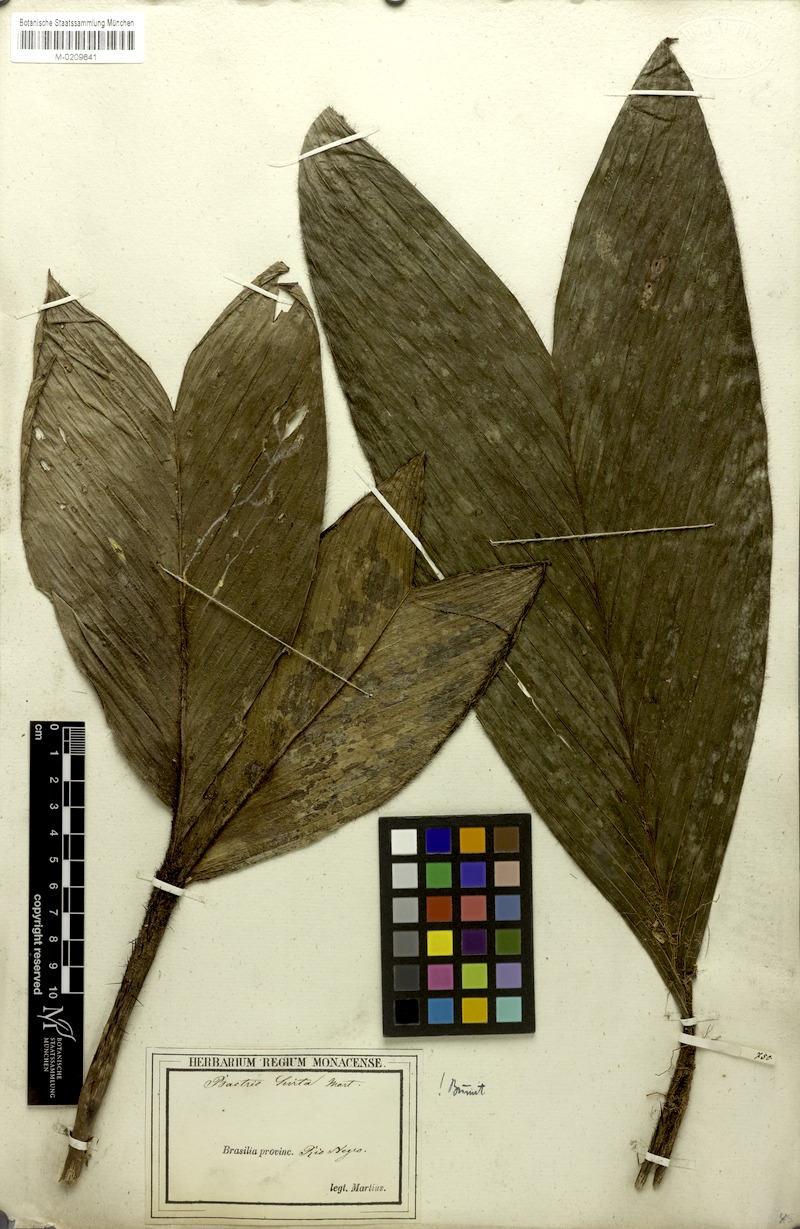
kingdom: Plantae
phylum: Tracheophyta
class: Liliopsida
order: Arecales
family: Arecaceae
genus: Bactris
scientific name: Bactris hirta
